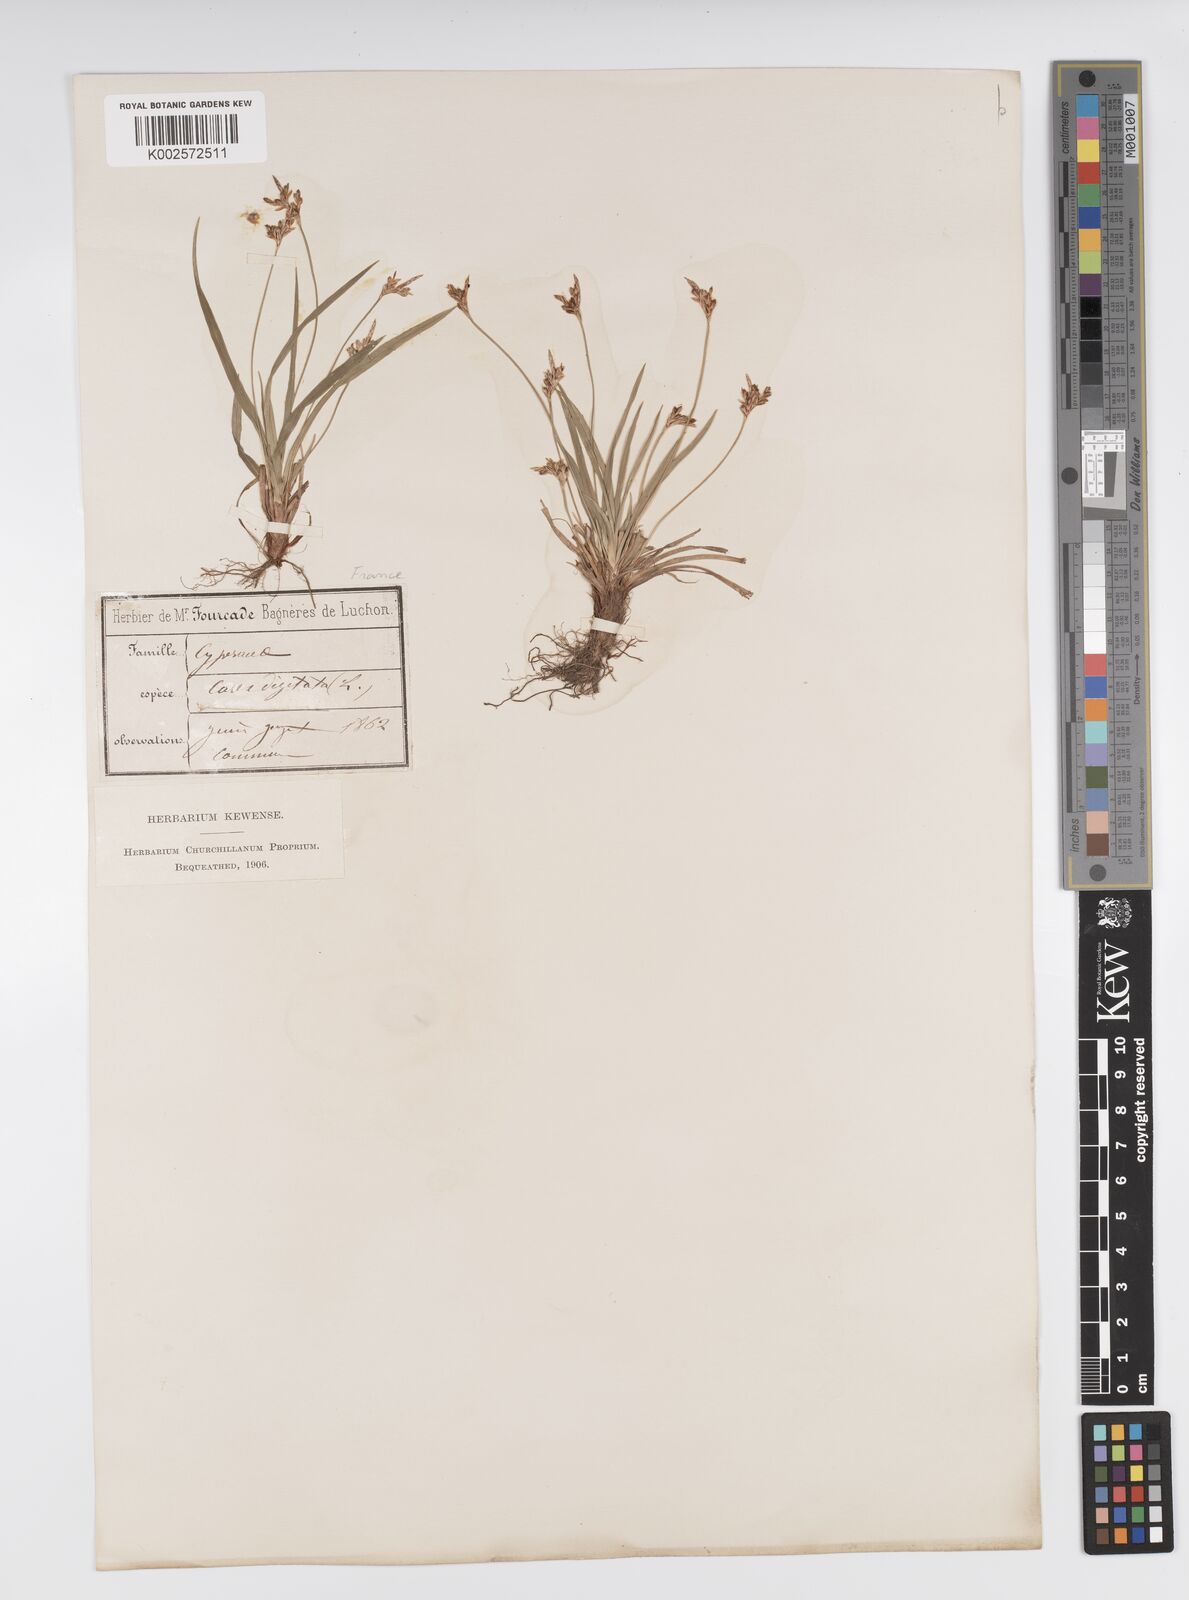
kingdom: Plantae
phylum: Tracheophyta
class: Liliopsida
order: Poales
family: Cyperaceae
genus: Carex
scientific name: Carex digitata
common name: Fingered sedge
